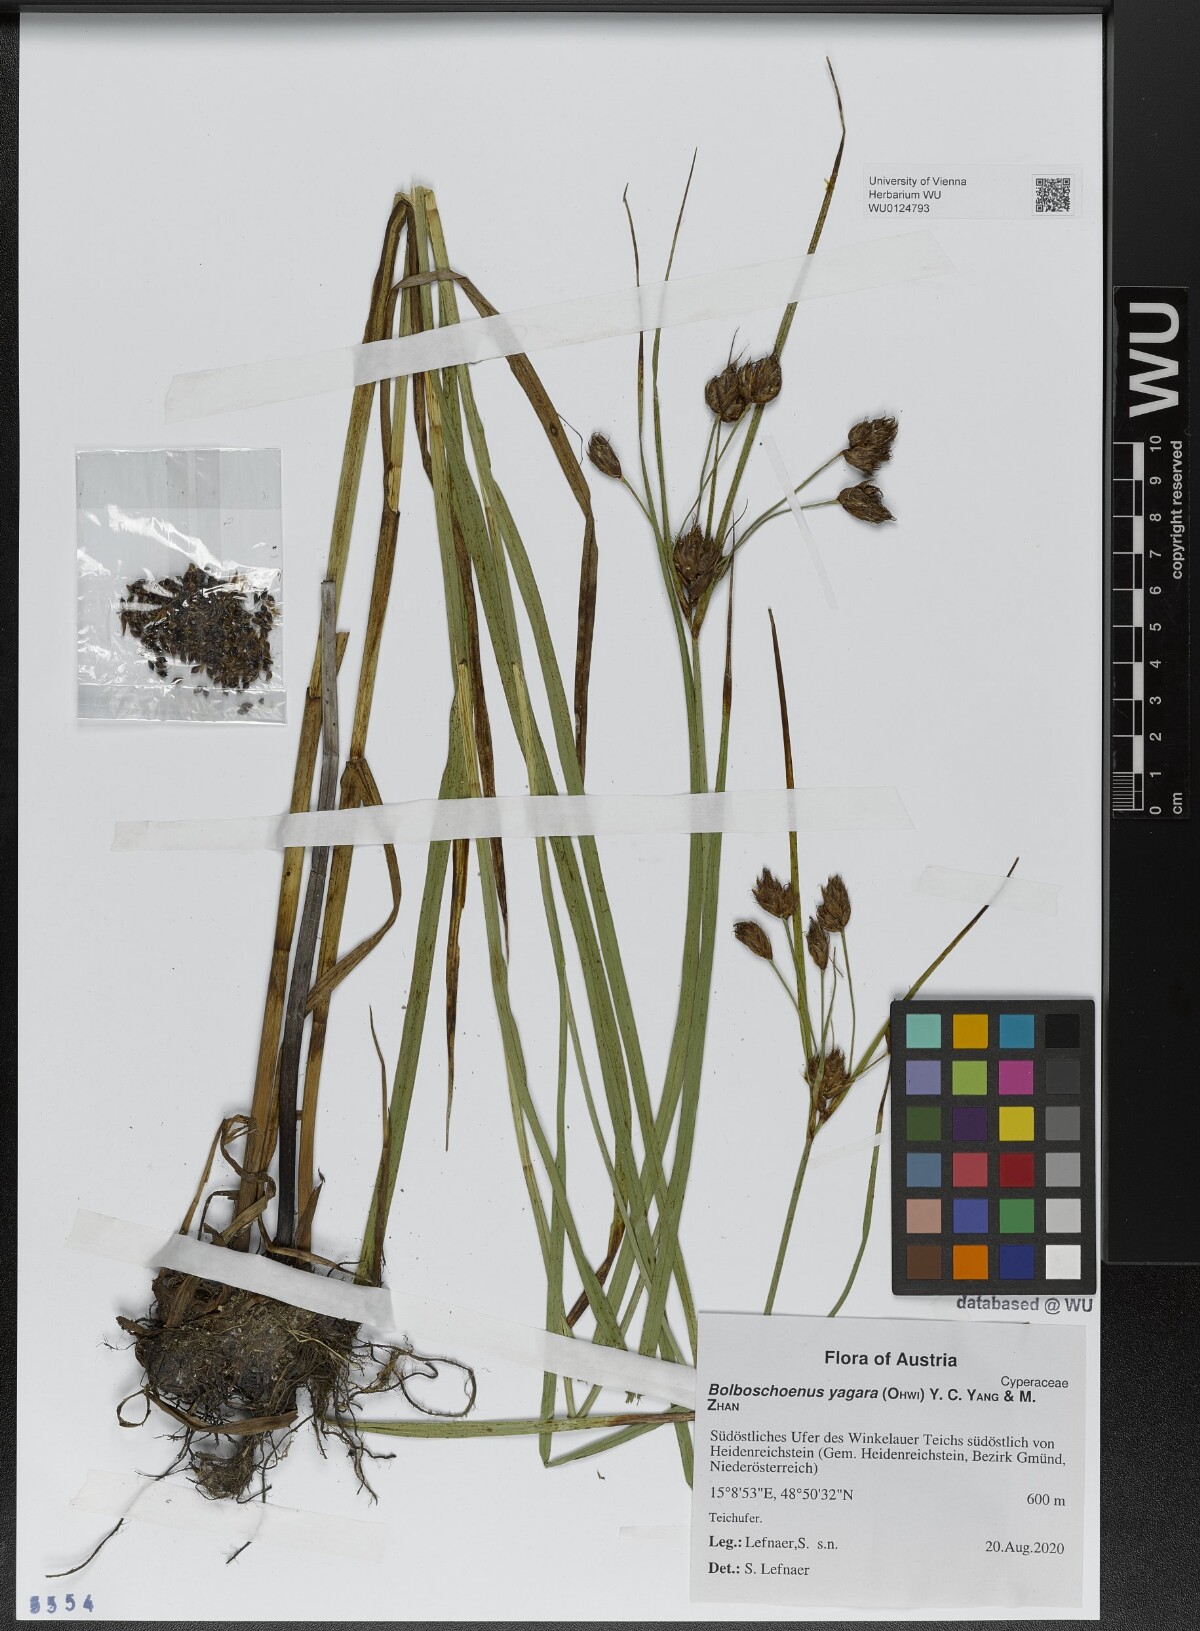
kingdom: Plantae
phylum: Tracheophyta
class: Liliopsida
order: Poales
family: Cyperaceae
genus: Bolboschoenus
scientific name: Bolboschoenus yagara
